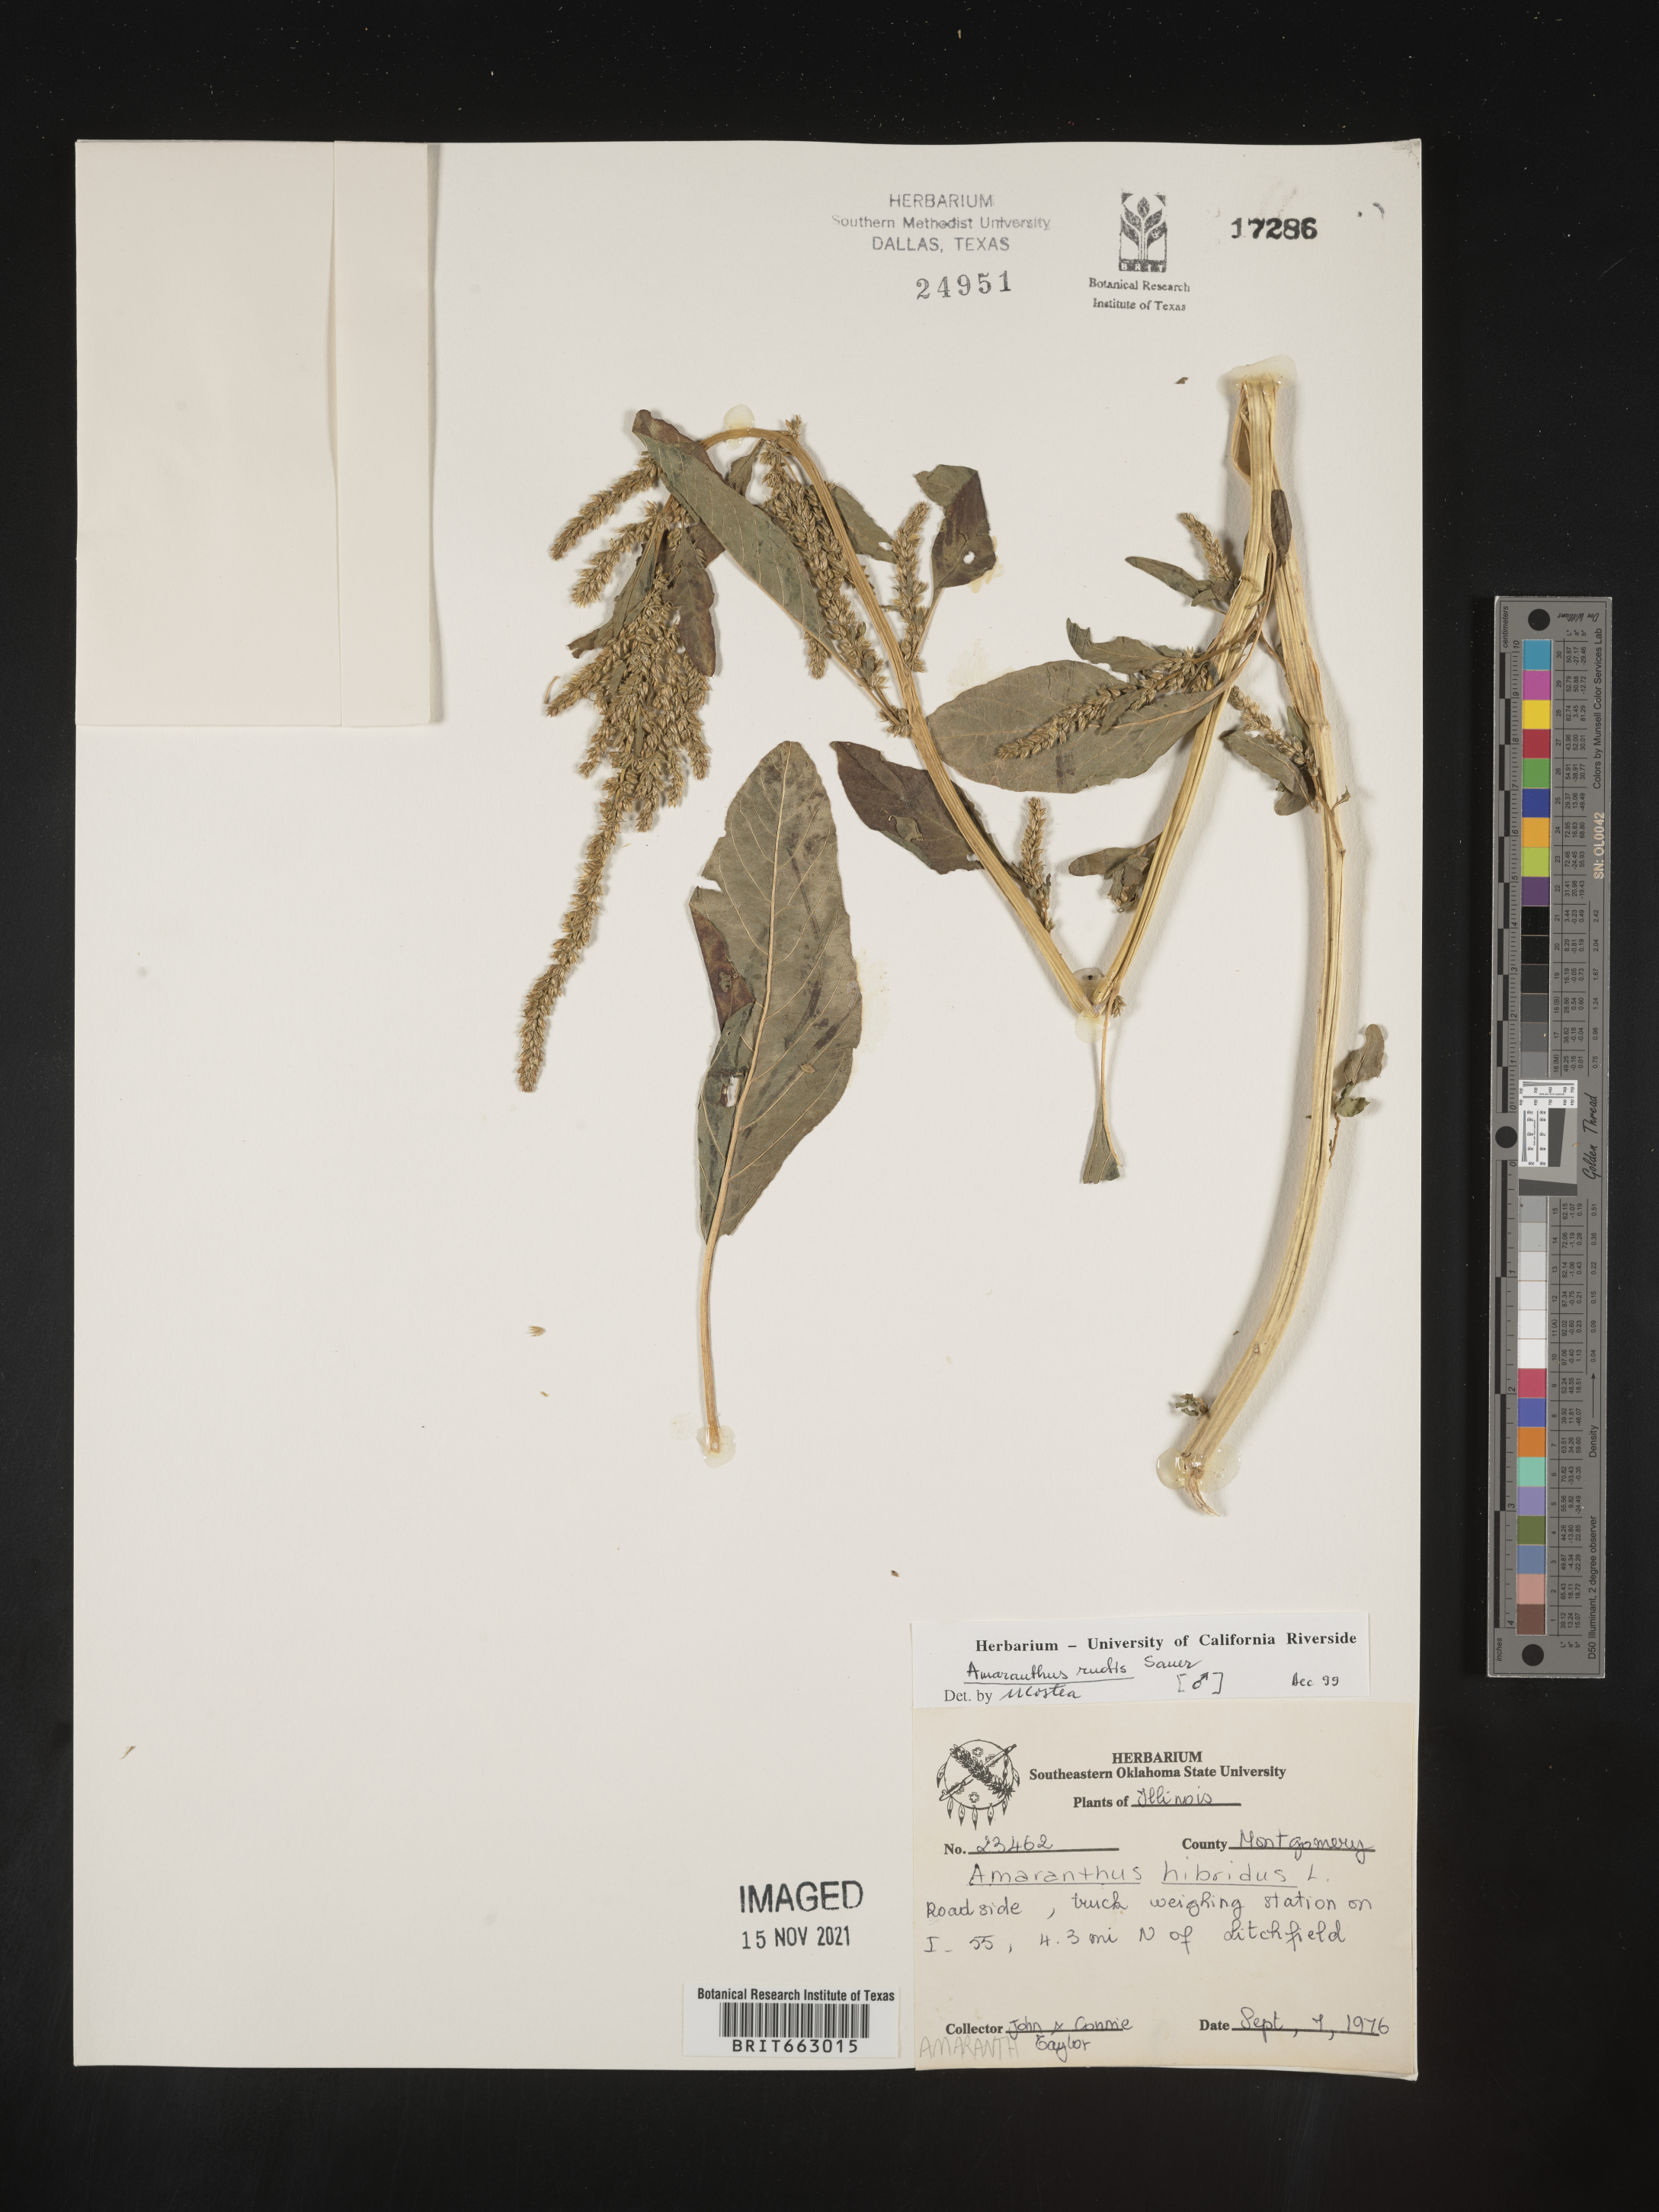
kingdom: Plantae
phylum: Tracheophyta
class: Magnoliopsida
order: Caryophyllales
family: Amaranthaceae
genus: Amaranthus
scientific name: Amaranthus tuberculatus
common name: Rough-fruit amaranth
